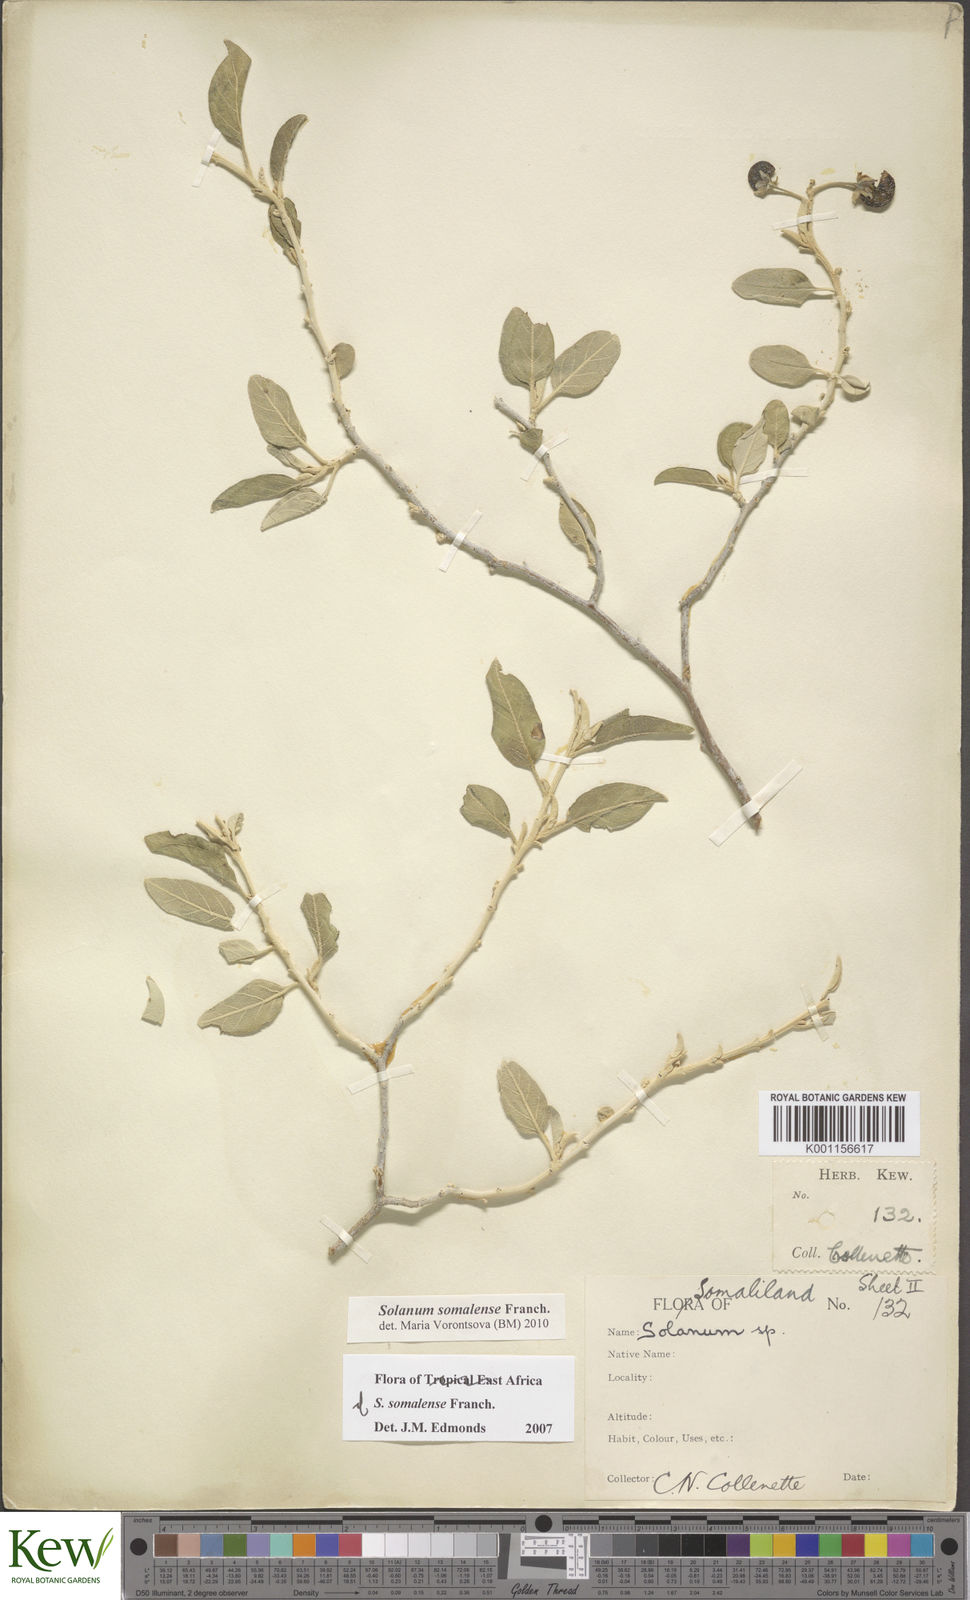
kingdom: Plantae
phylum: Tracheophyta
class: Magnoliopsida
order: Solanales
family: Solanaceae
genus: Solanum
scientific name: Solanum somalense
